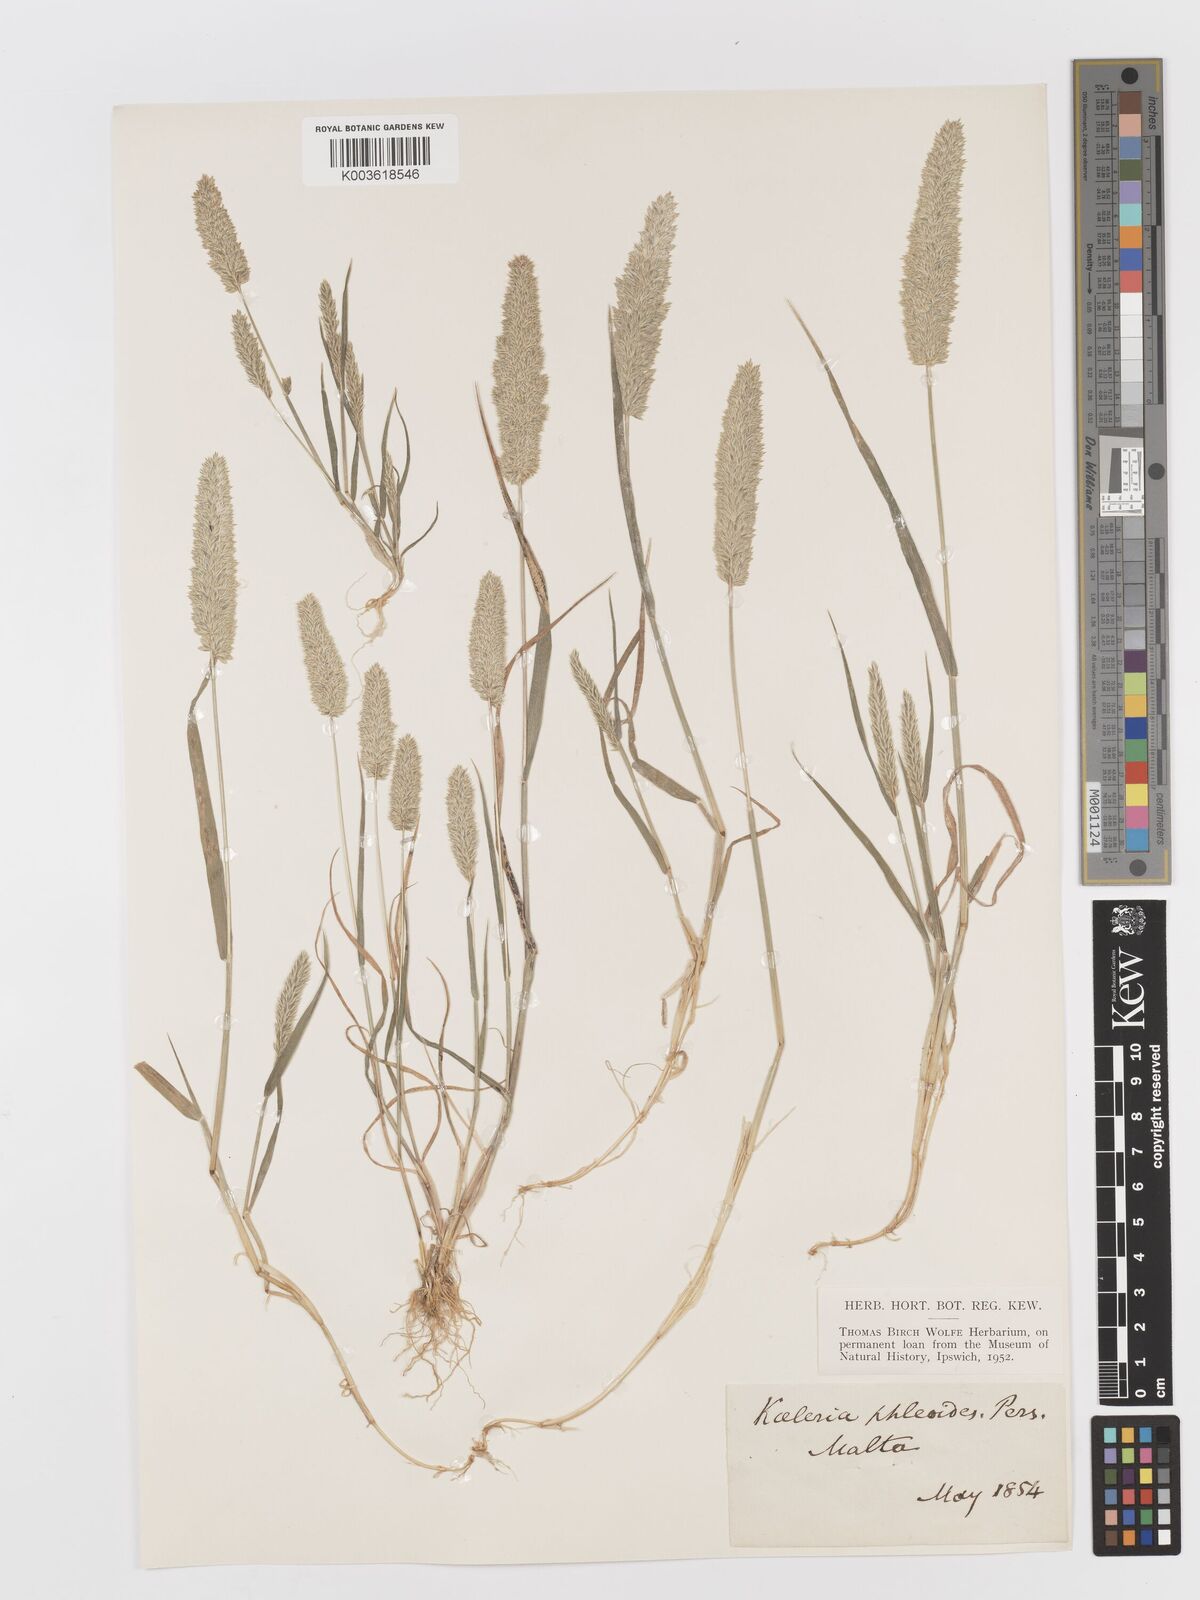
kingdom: Plantae
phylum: Tracheophyta
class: Liliopsida
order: Poales
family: Poaceae
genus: Rostraria
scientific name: Rostraria cristata
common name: Mediterranean hair-grass
